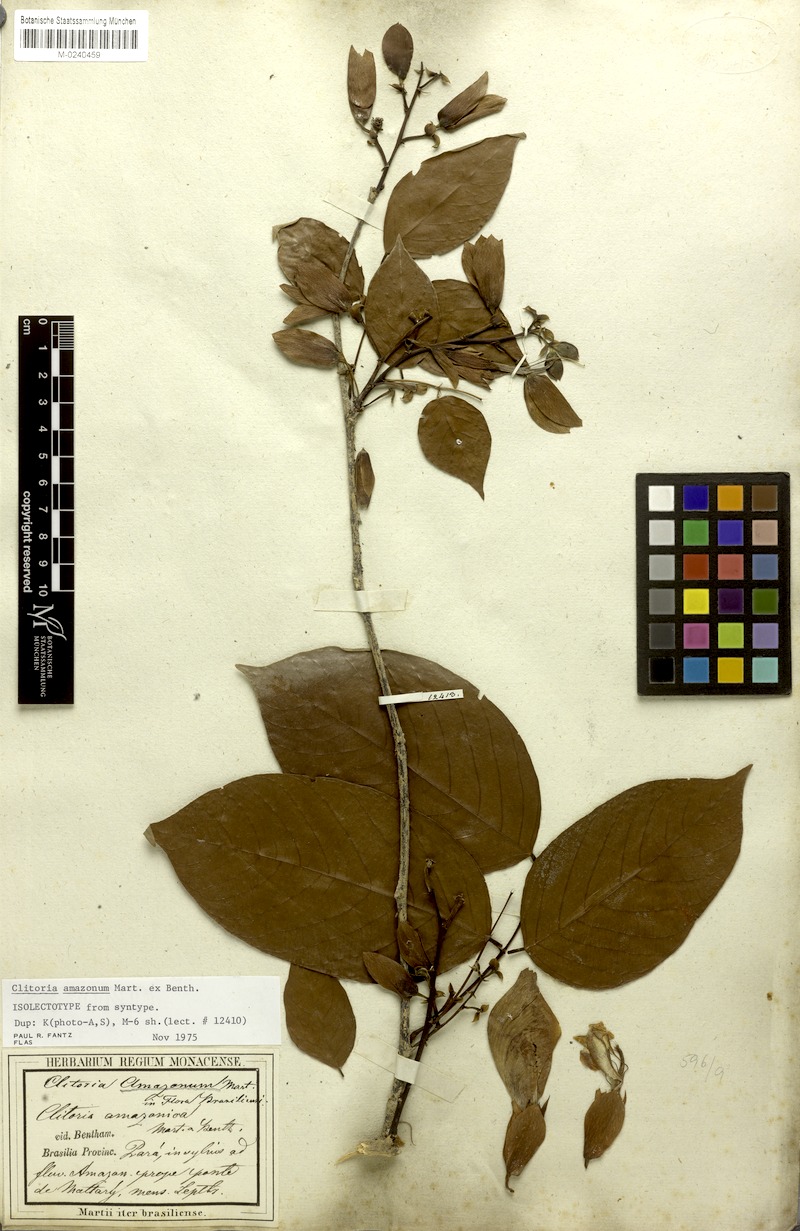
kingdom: Plantae
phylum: Tracheophyta
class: Magnoliopsida
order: Fabales
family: Fabaceae
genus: Clitoria
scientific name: Clitoria amazonum
